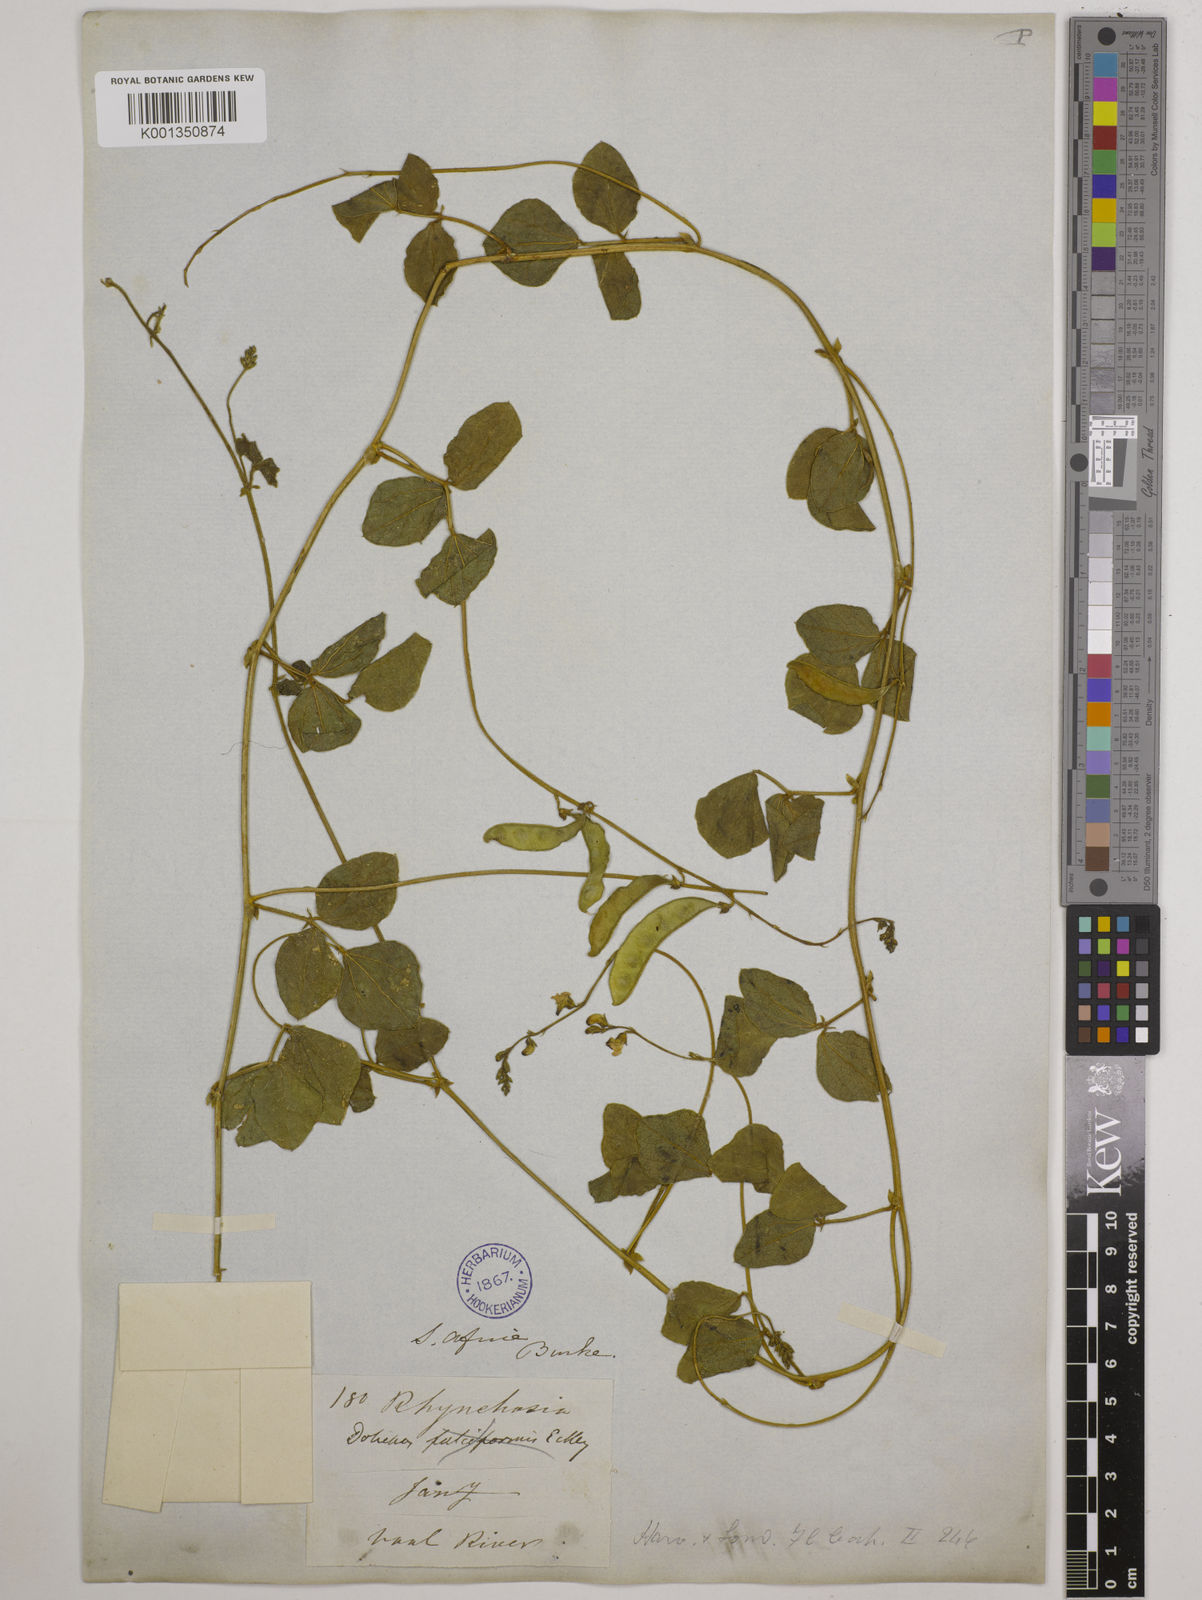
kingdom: Plantae
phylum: Tracheophyta
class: Magnoliopsida
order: Fabales
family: Fabaceae
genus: Dolichos
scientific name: Dolichos falciformis
